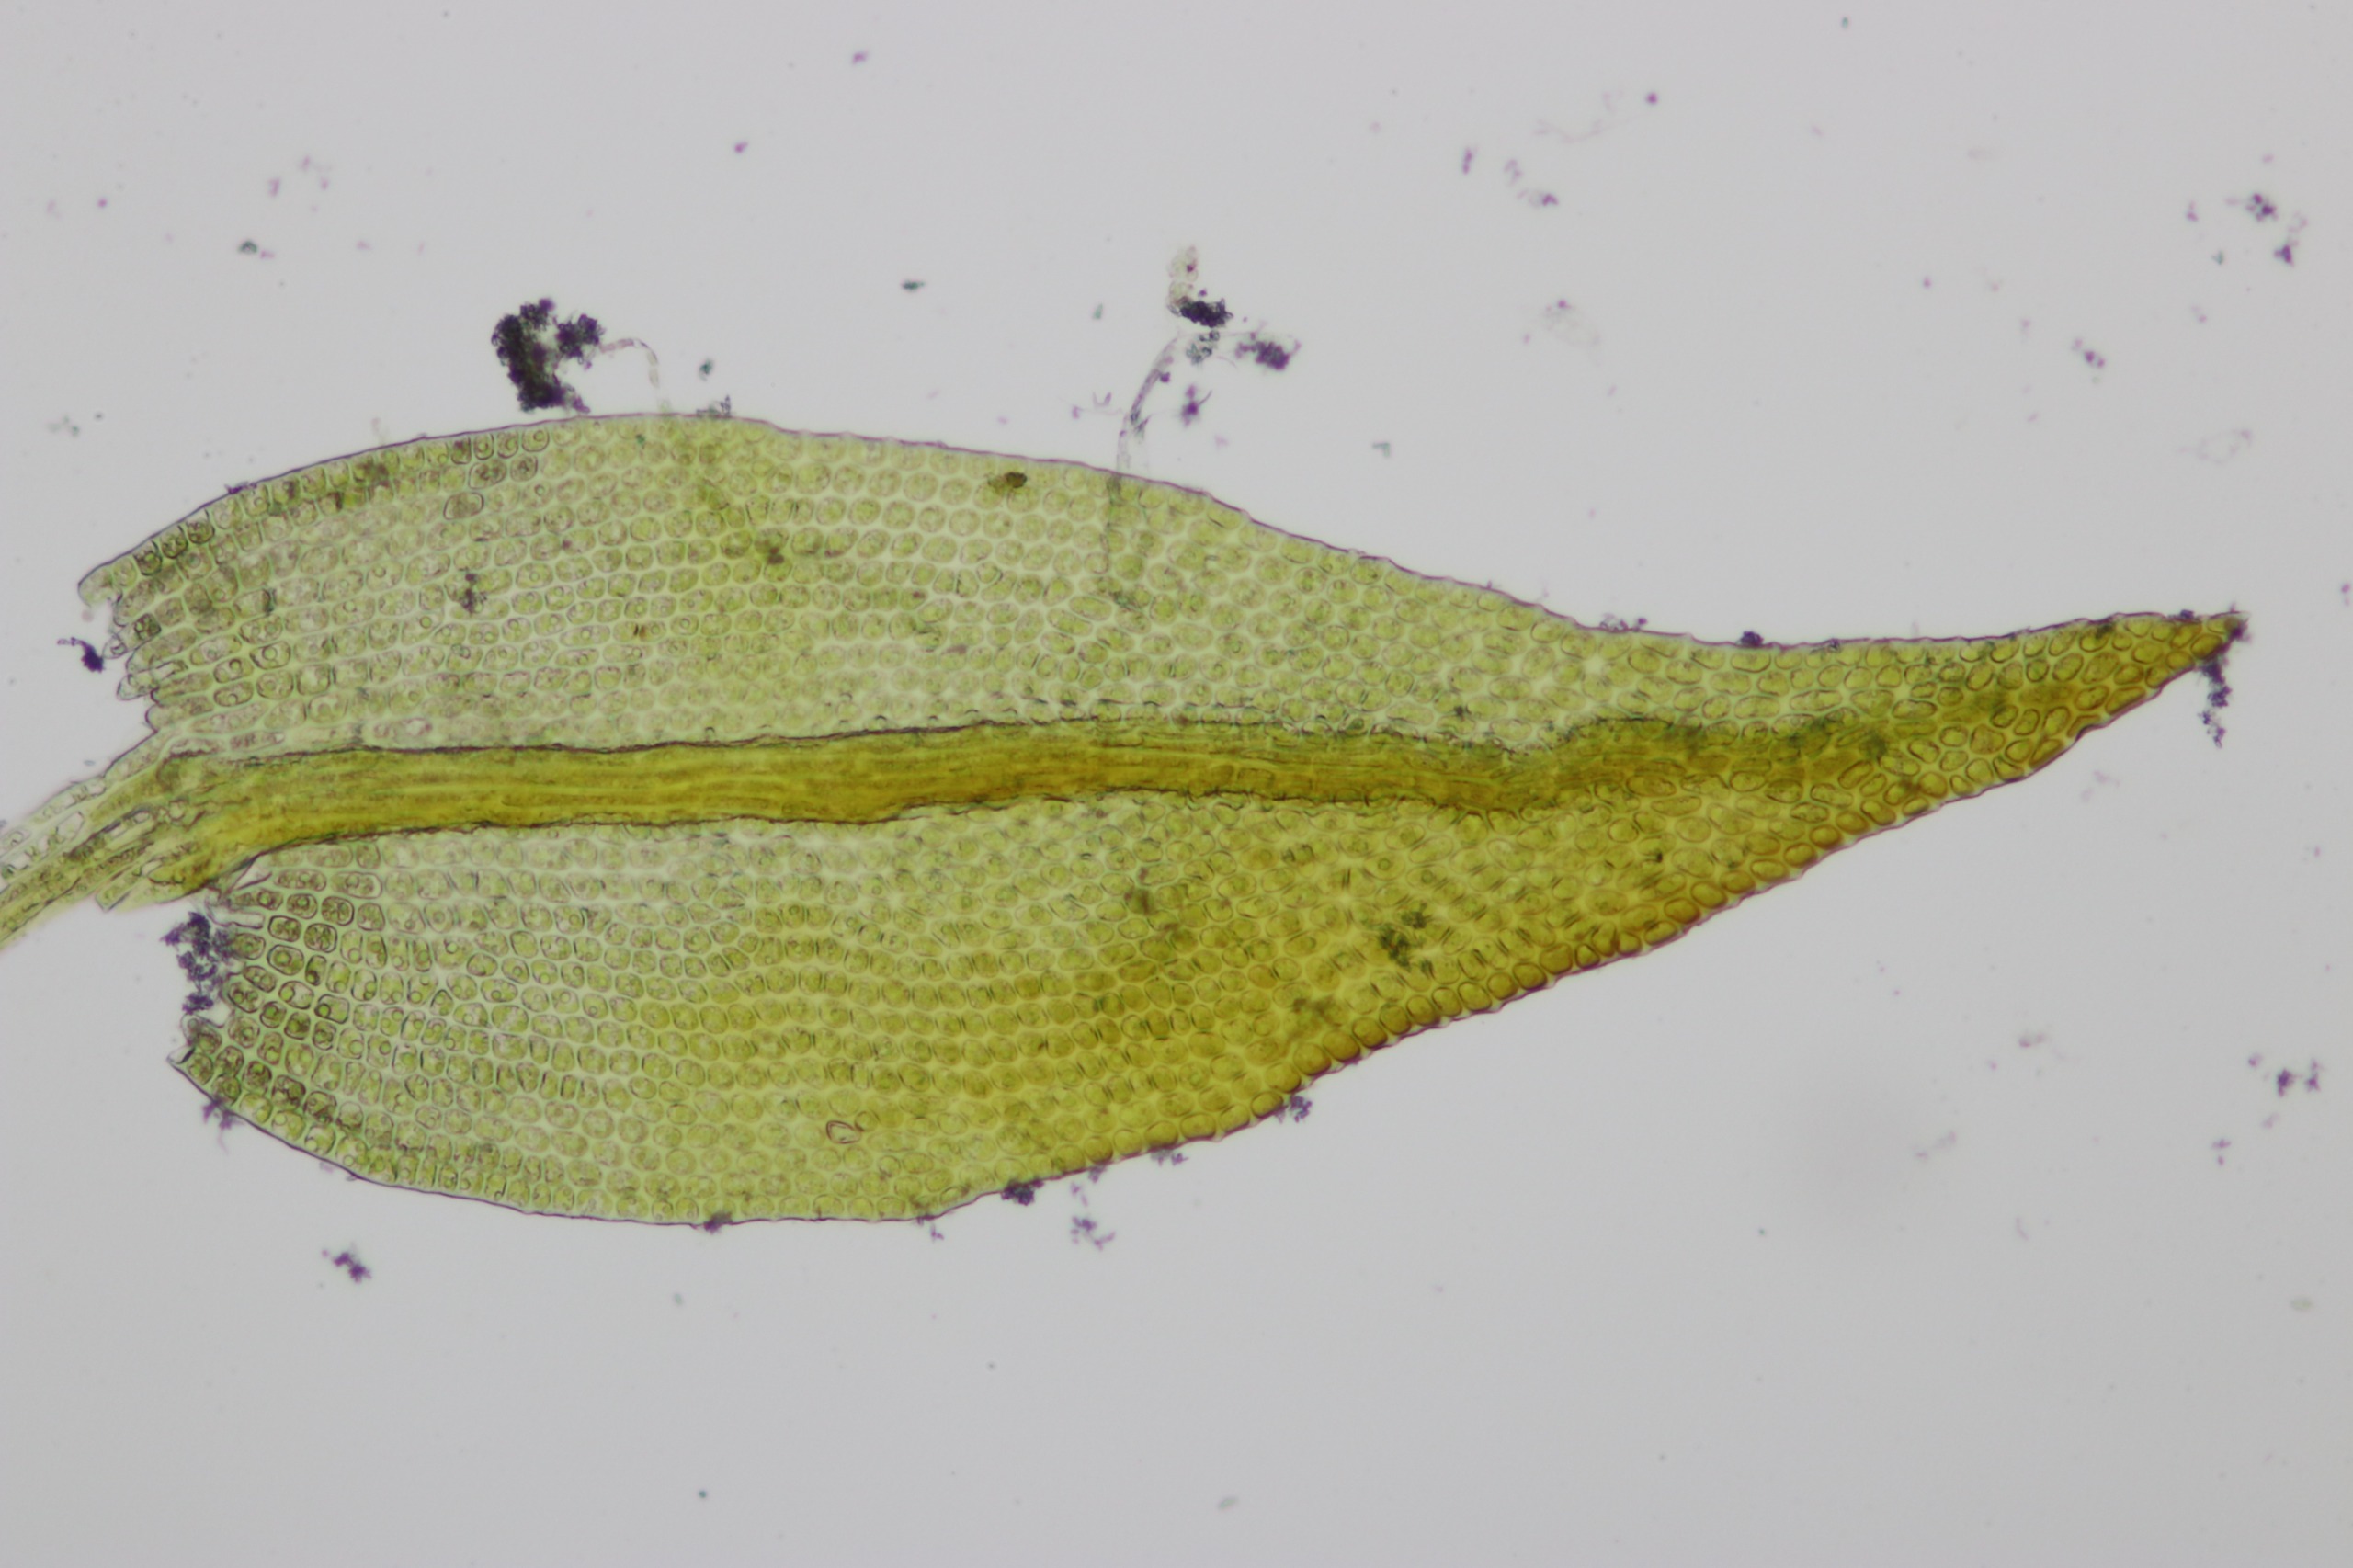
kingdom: Plantae
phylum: Bryophyta
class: Bryopsida
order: Hypnales
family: Leskeaceae
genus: Leskea
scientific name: Leskea polycarpa
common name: Mat lærkemos
